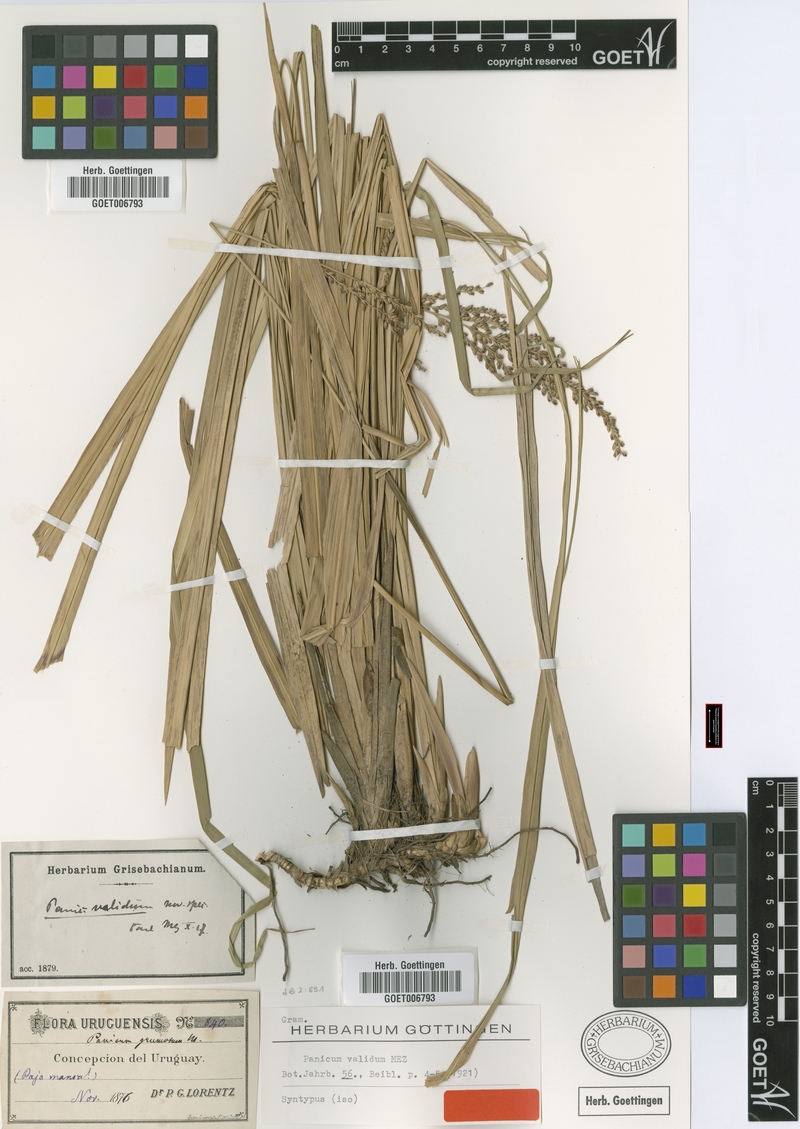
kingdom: Plantae
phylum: Tracheophyta
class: Liliopsida
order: Poales
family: Poaceae
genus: Osvaldoa
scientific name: Osvaldoa valida
